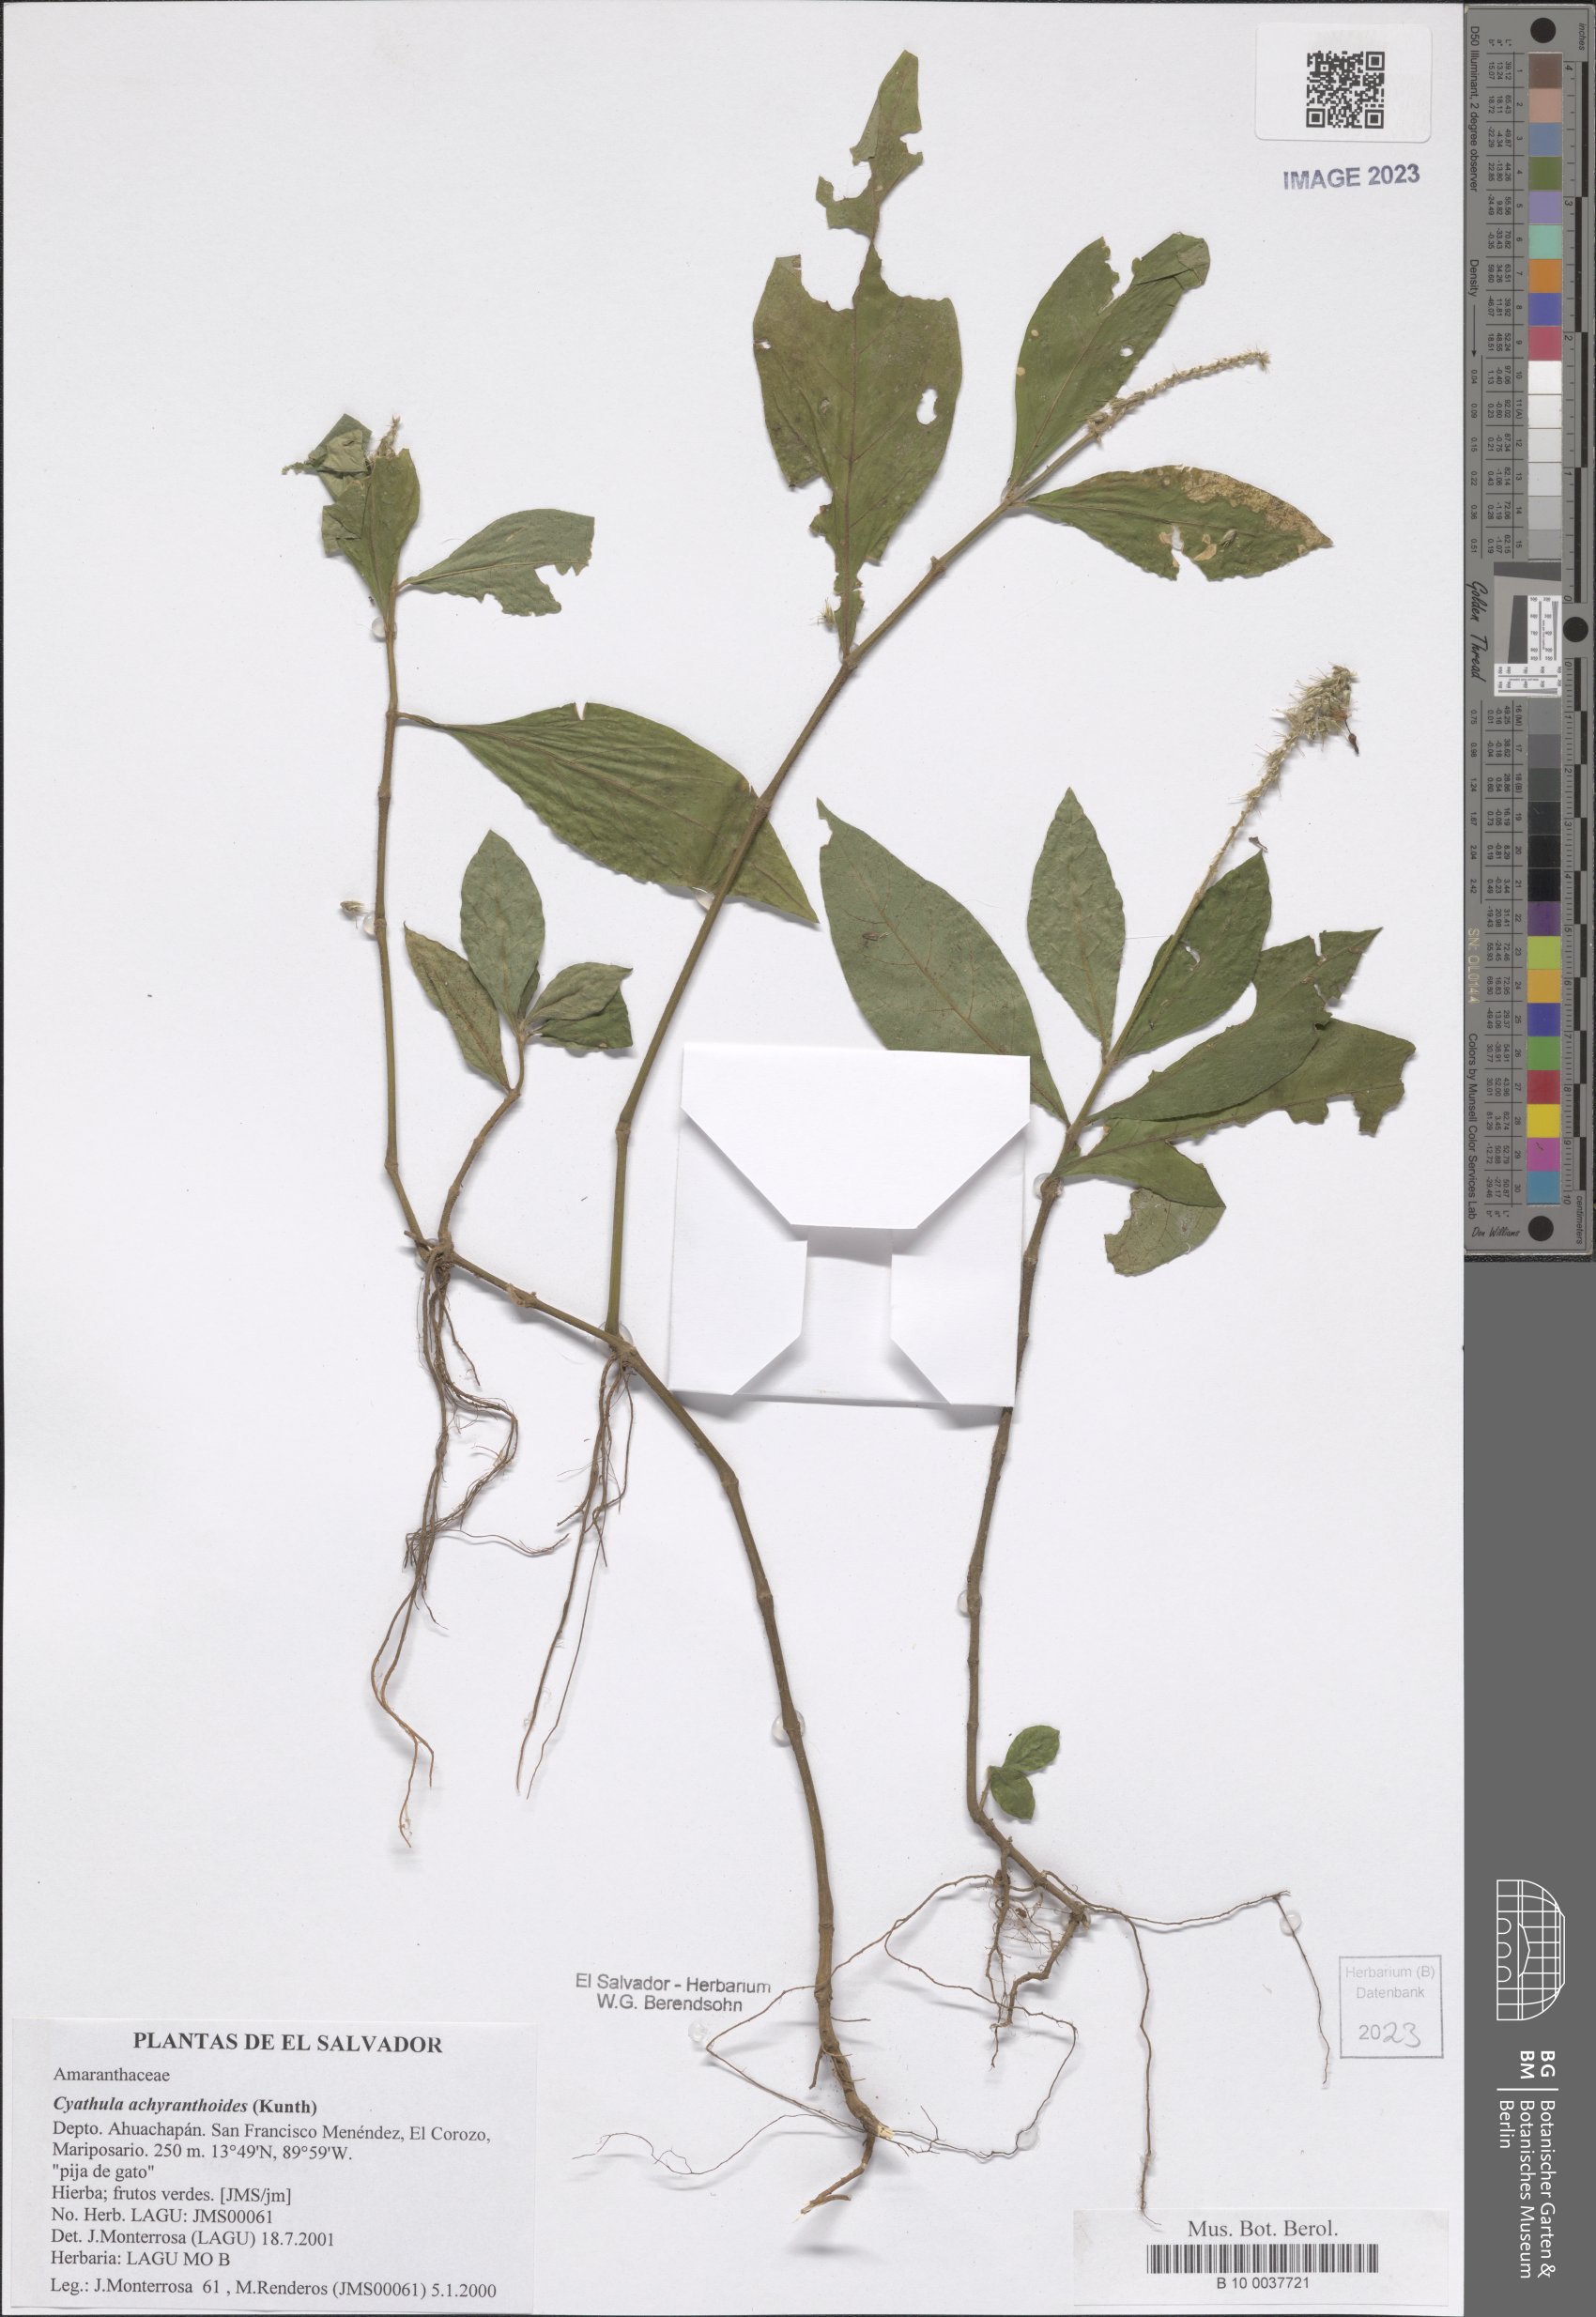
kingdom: Plantae
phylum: Tracheophyta
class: Magnoliopsida
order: Caryophyllales
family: Amaranthaceae
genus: Cyathula
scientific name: Cyathula achyranthoides
